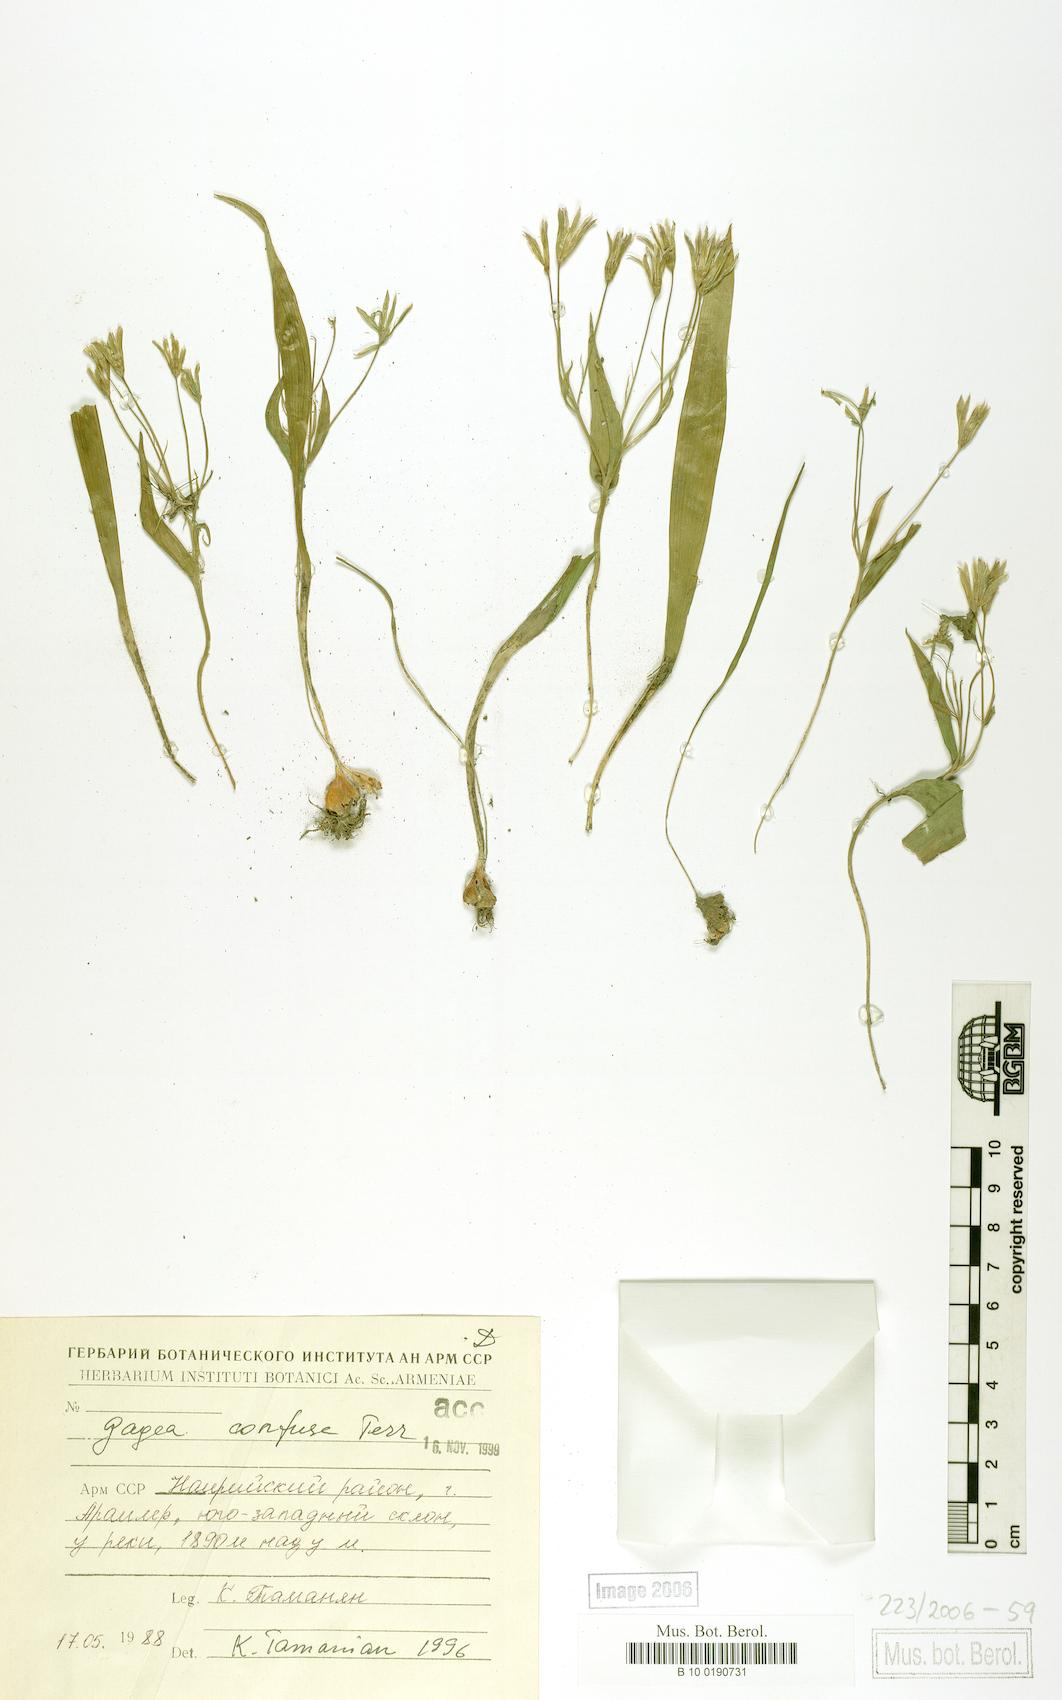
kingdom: Plantae
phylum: Tracheophyta
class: Liliopsida
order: Liliales
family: Liliaceae
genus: Gagea
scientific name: Gagea confusa
